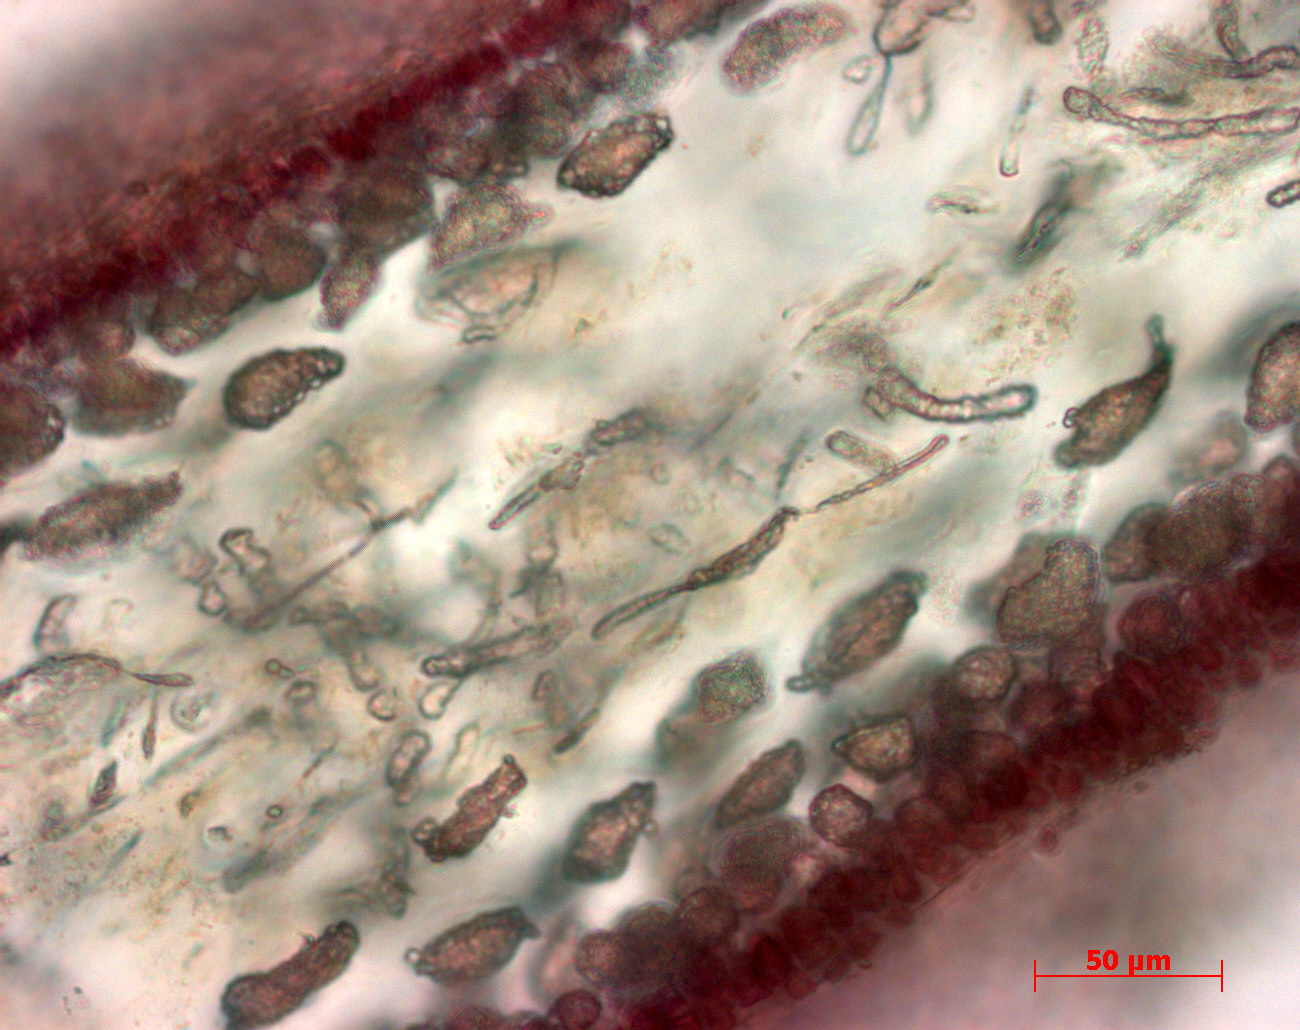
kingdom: Plantae
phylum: Rhodophyta
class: Florideophyceae
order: Gigartinales
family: Kallymeniaceae
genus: Psaromenia
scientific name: Psaromenia berggrenii
